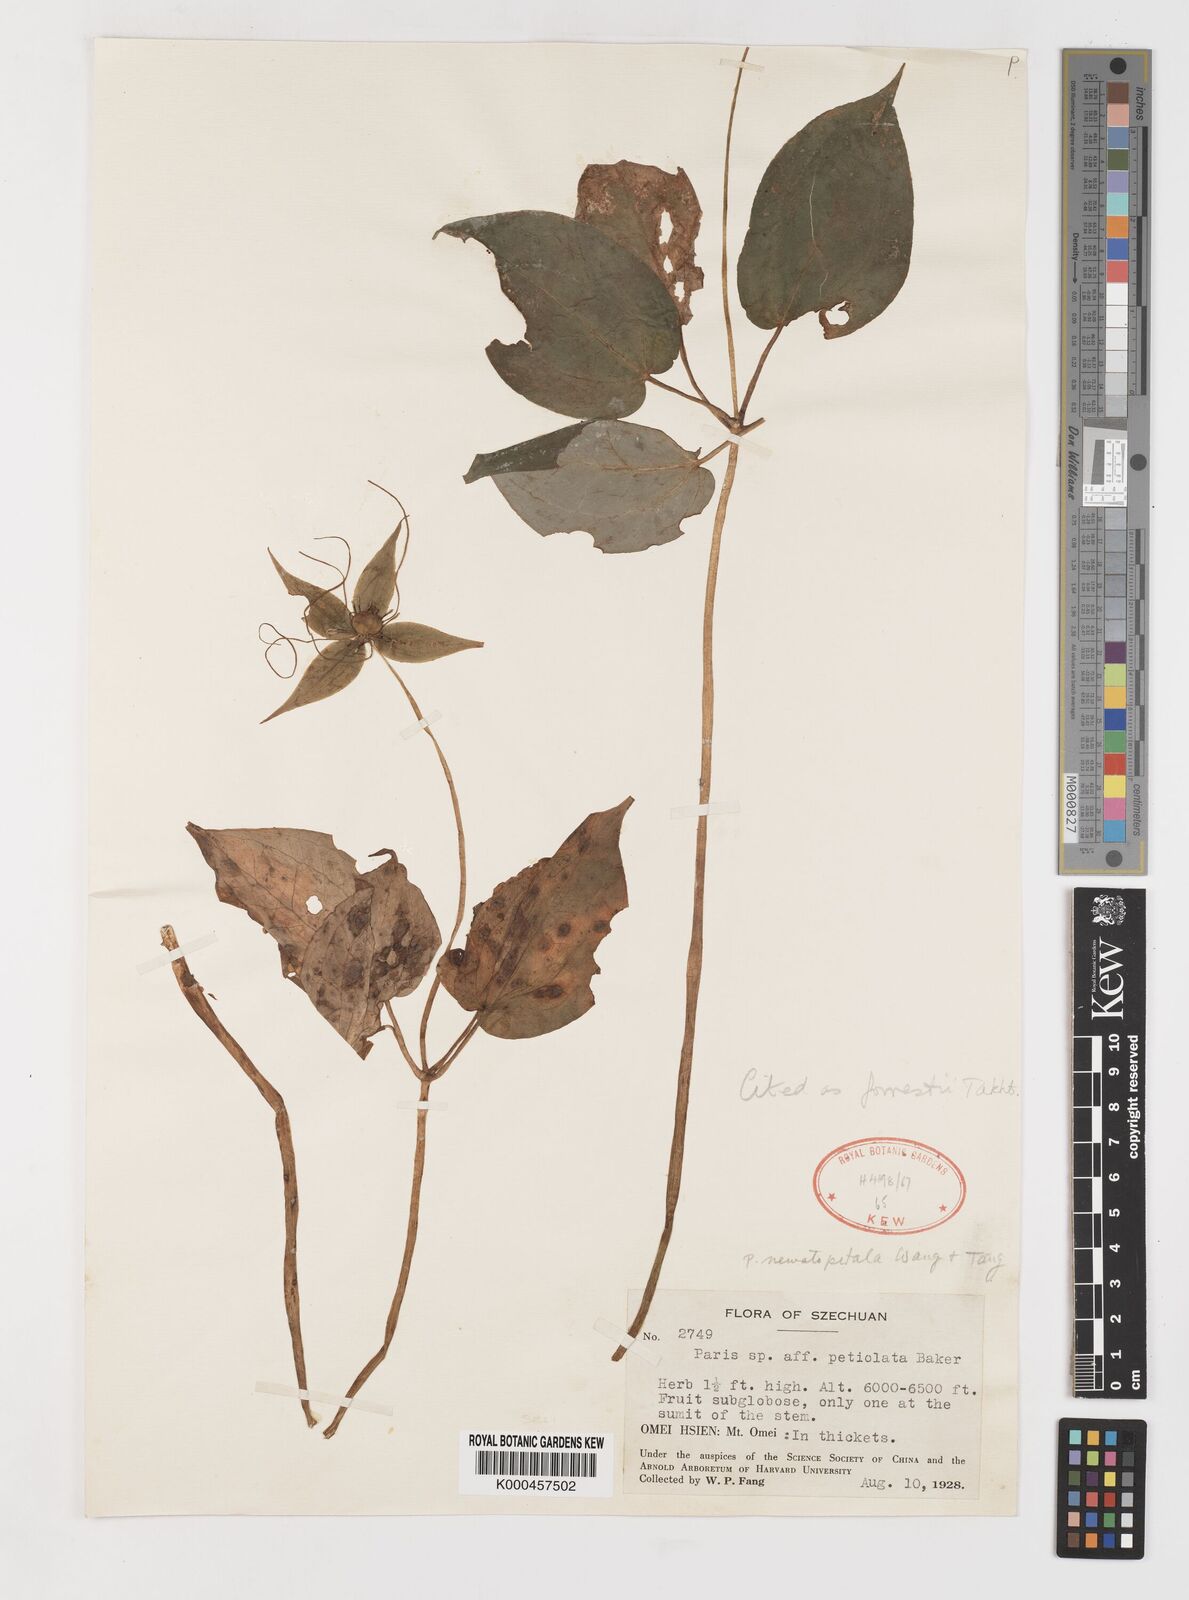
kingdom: Plantae
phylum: Tracheophyta
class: Liliopsida
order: Liliales
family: Melanthiaceae
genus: Paris
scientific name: Paris forrestii
